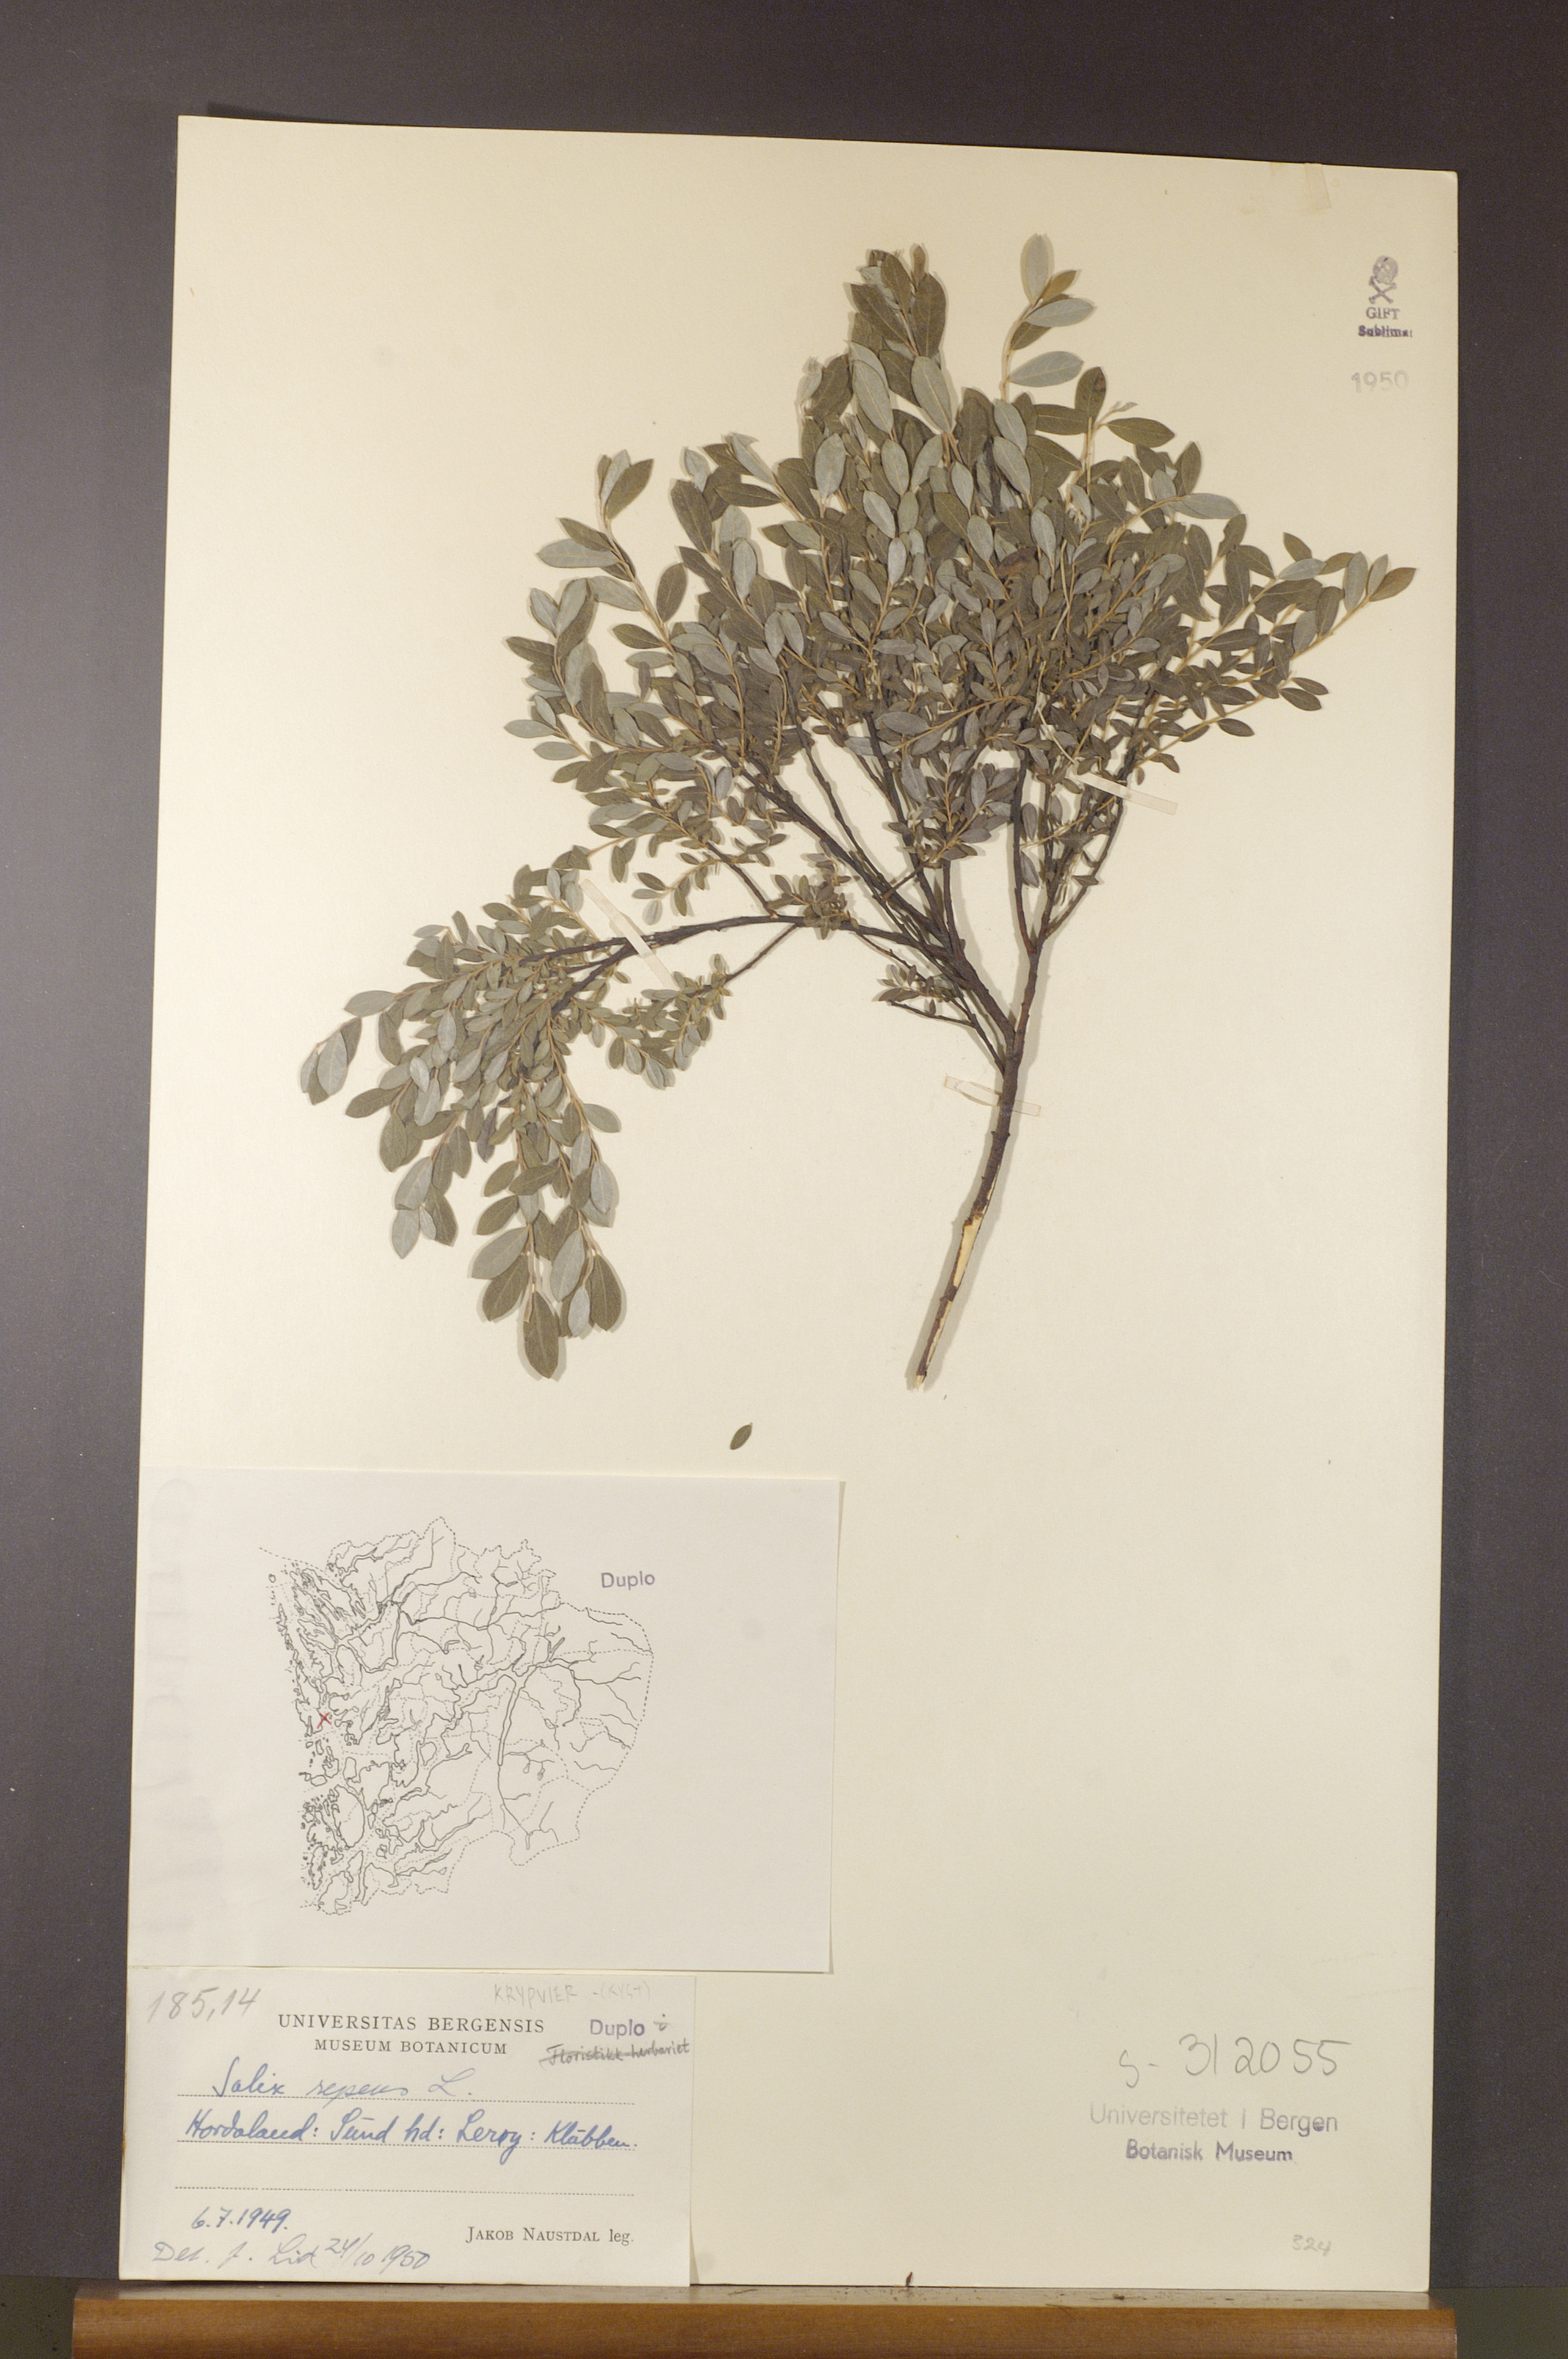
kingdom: Plantae
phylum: Tracheophyta
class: Magnoliopsida
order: Malpighiales
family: Salicaceae
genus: Salix
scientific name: Salix repens
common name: Creeping willow
